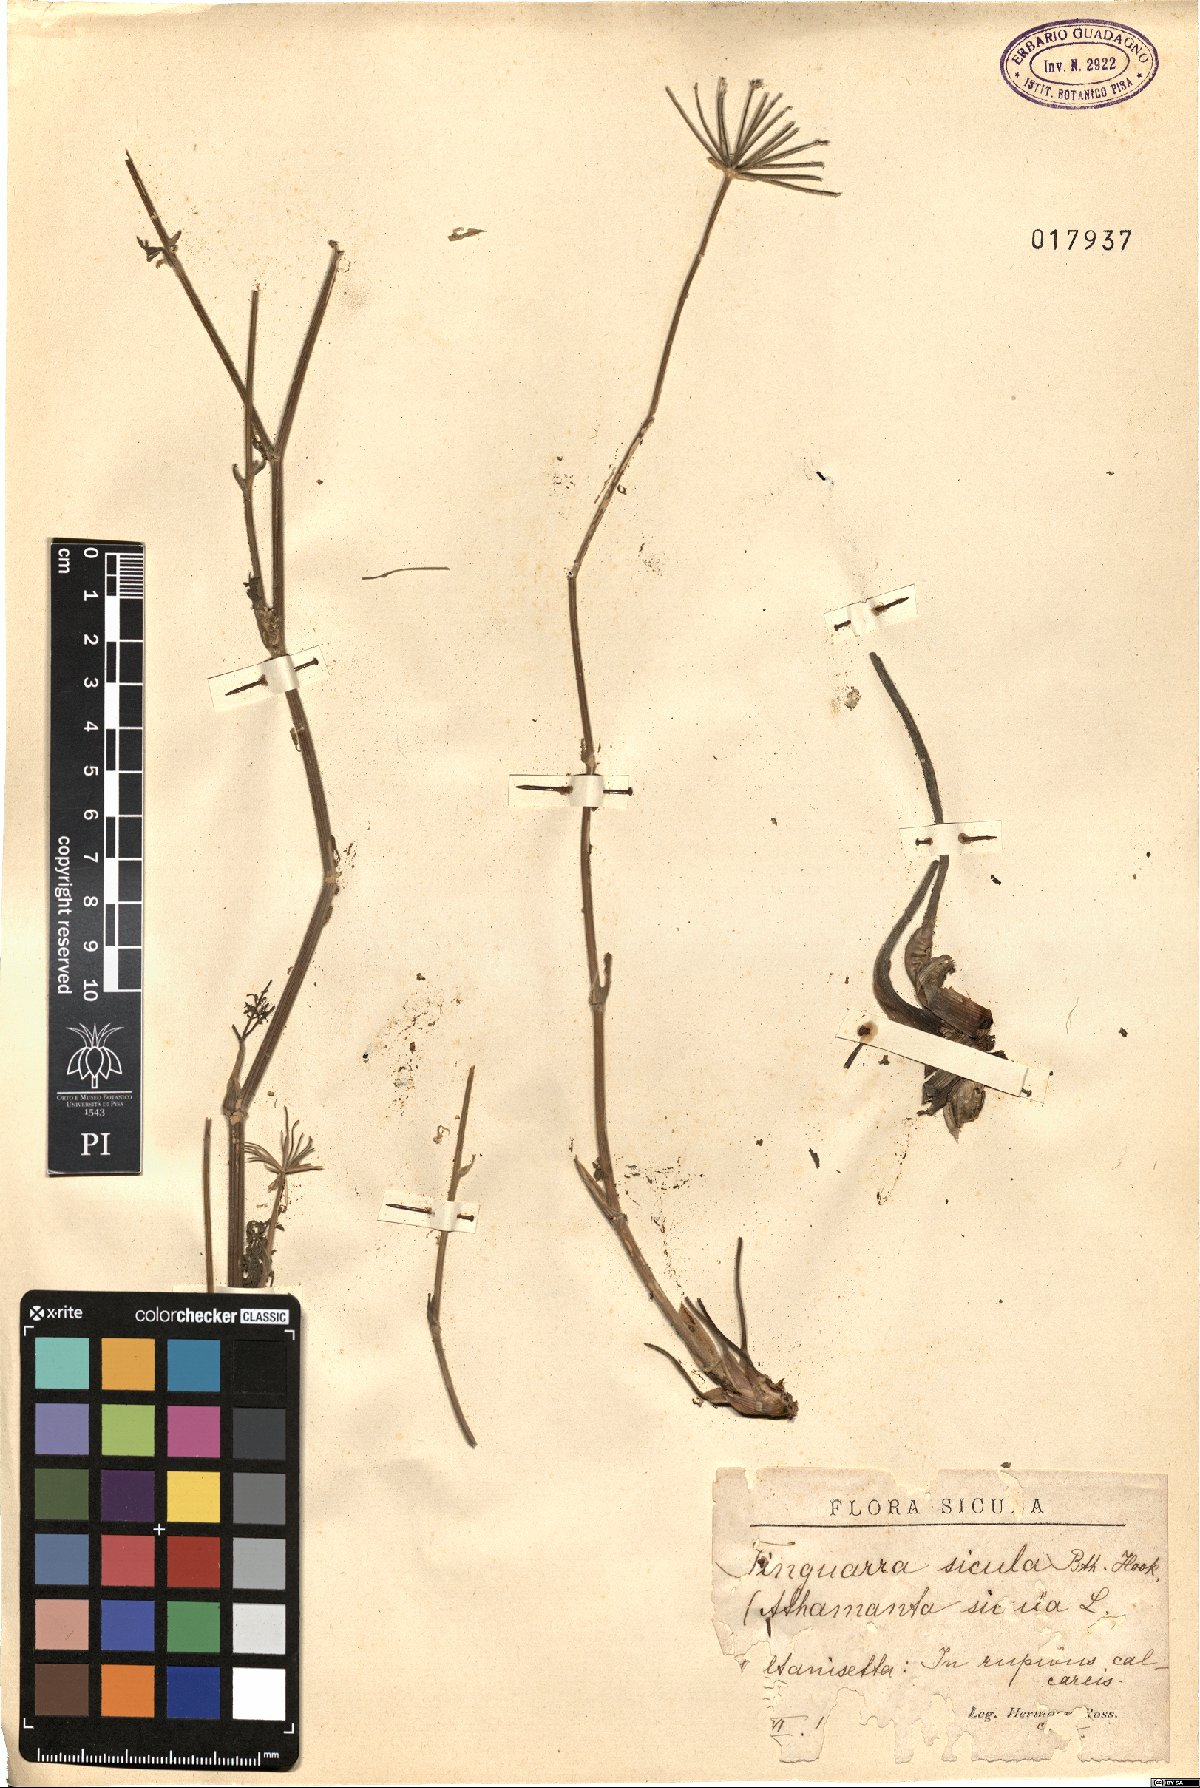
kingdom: Plantae
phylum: Tracheophyta
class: Magnoliopsida
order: Apiales
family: Apiaceae
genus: Athamanta
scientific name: Athamanta sicula
